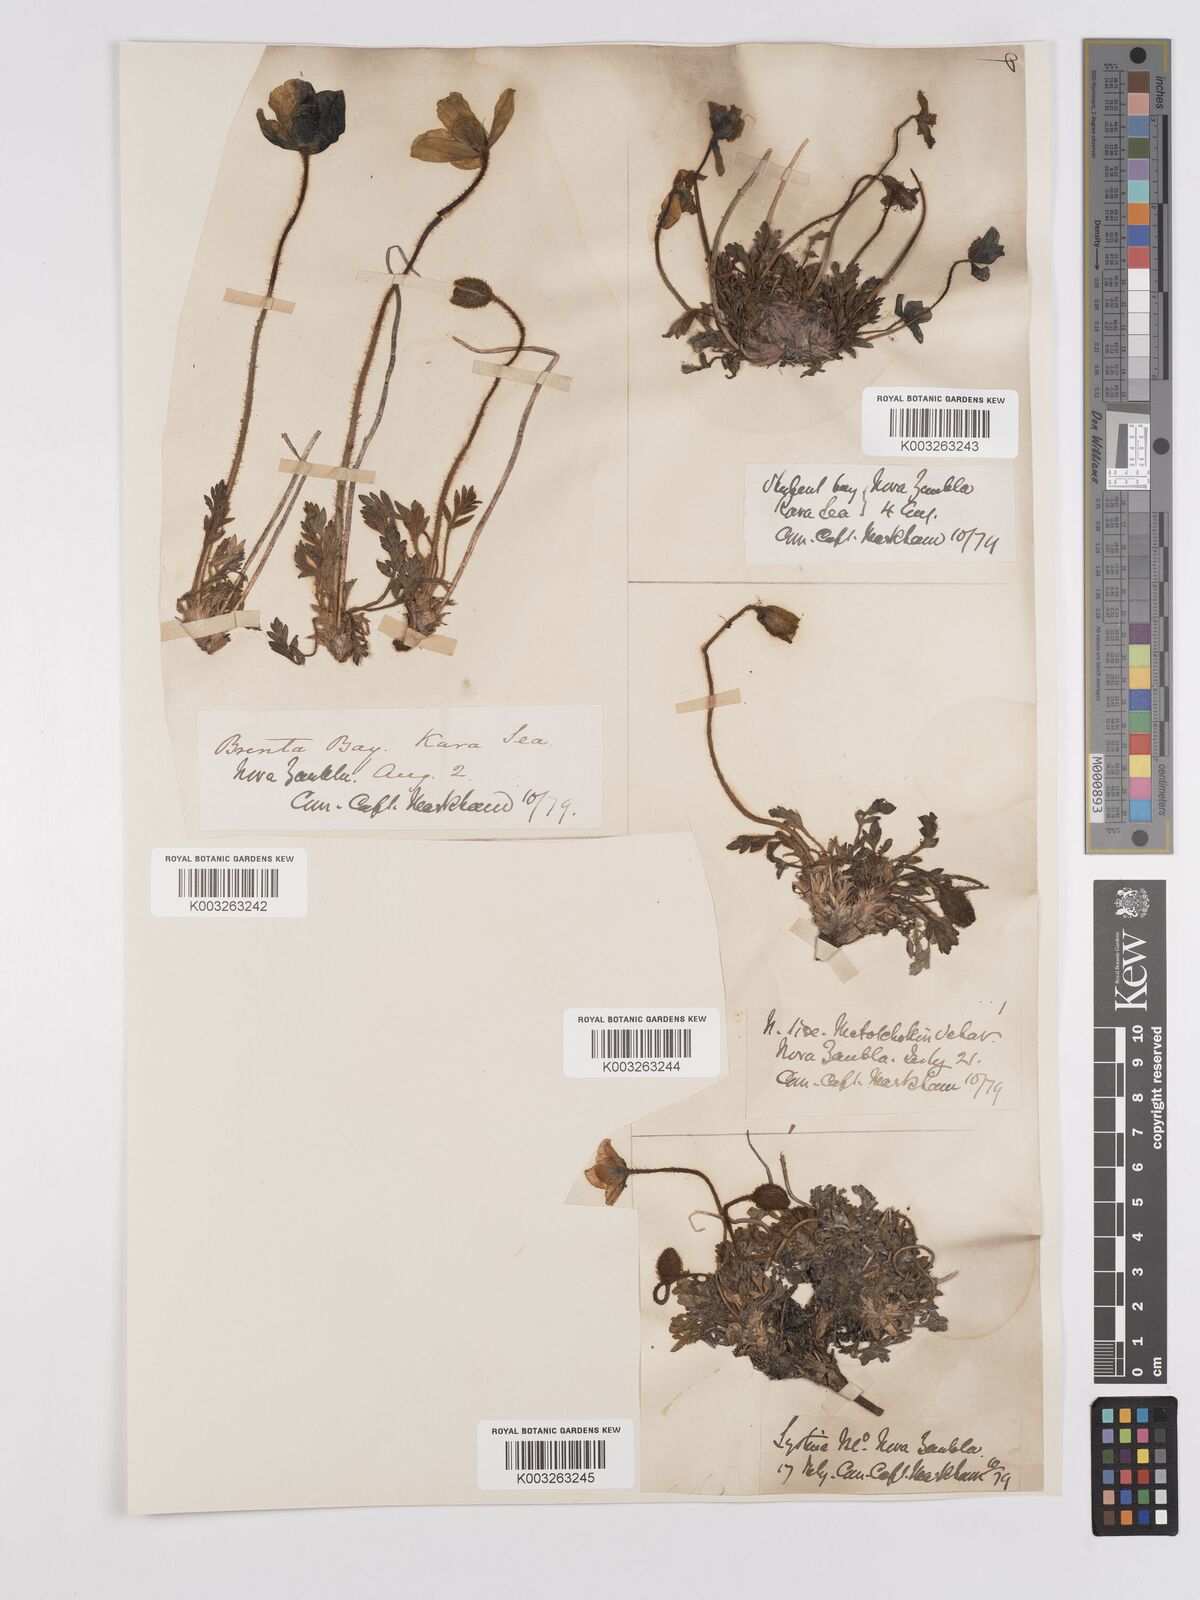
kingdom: Plantae
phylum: Tracheophyta
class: Magnoliopsida
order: Ranunculales
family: Papaveraceae
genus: Papaver
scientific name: Papaver radicatum
